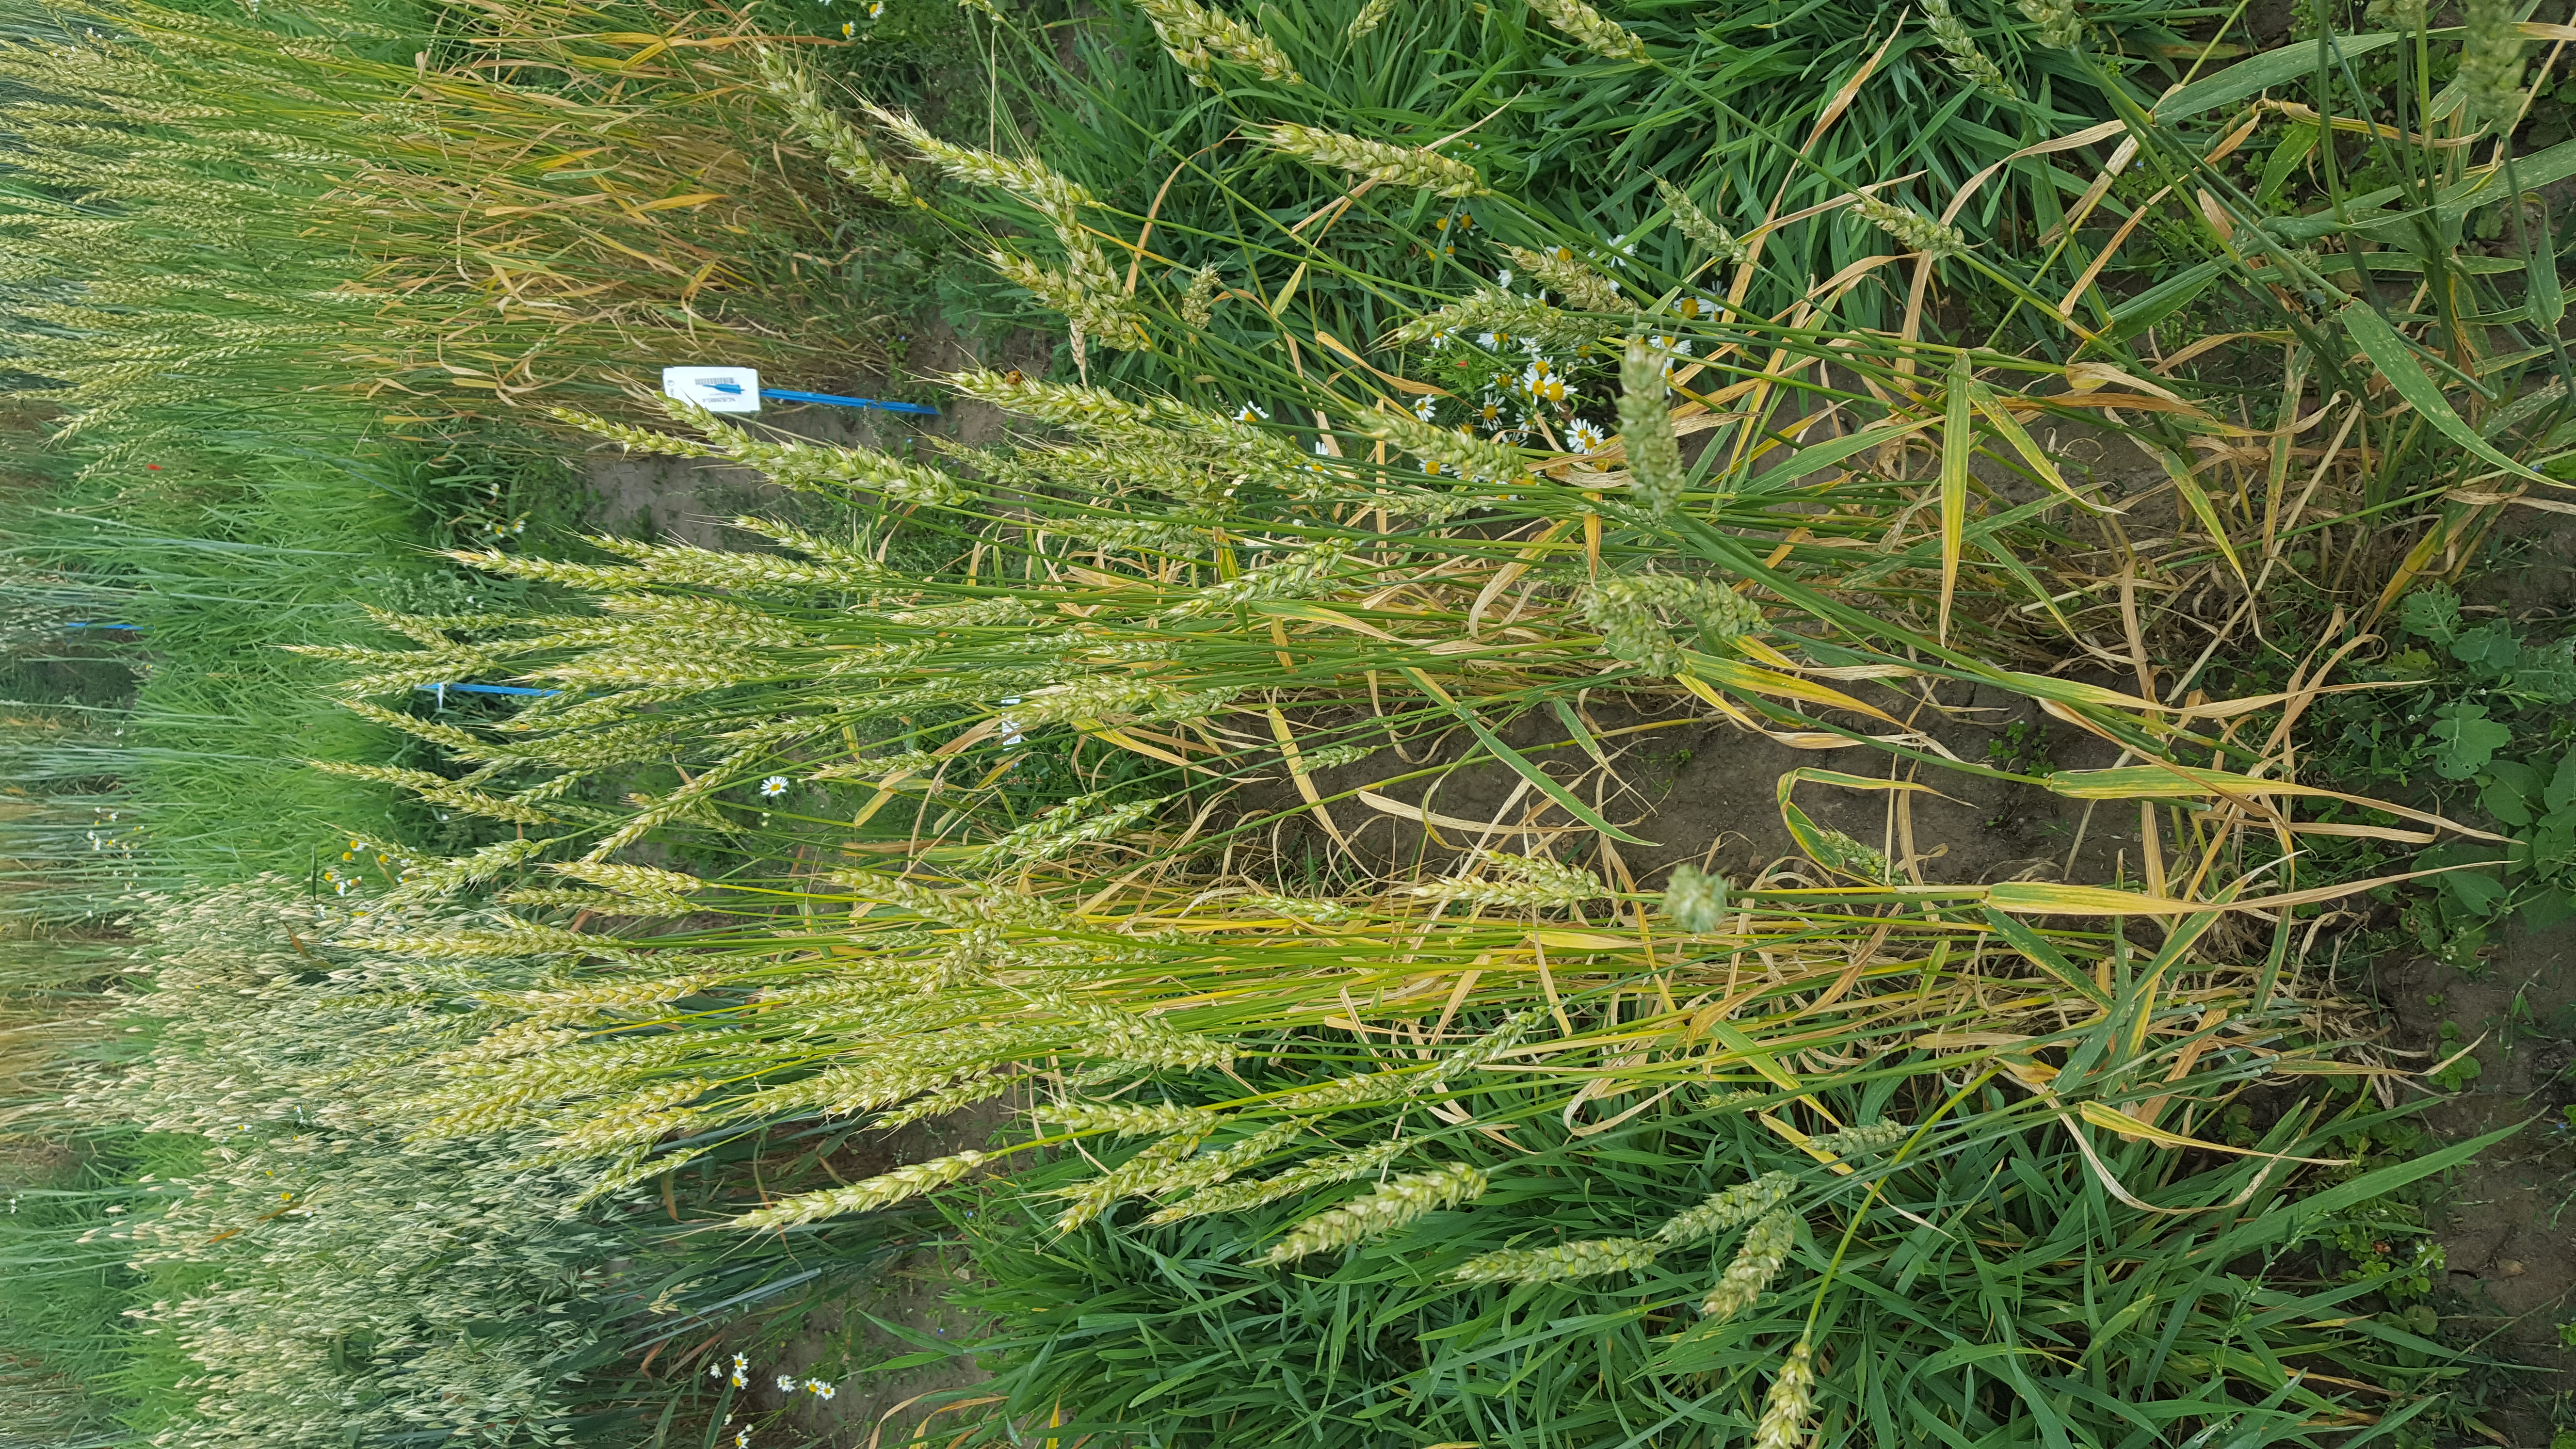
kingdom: Plantae
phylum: Tracheophyta
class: Liliopsida
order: Poales
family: Poaceae
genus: Triticum
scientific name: Triticum aestivum
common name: Common wheat
